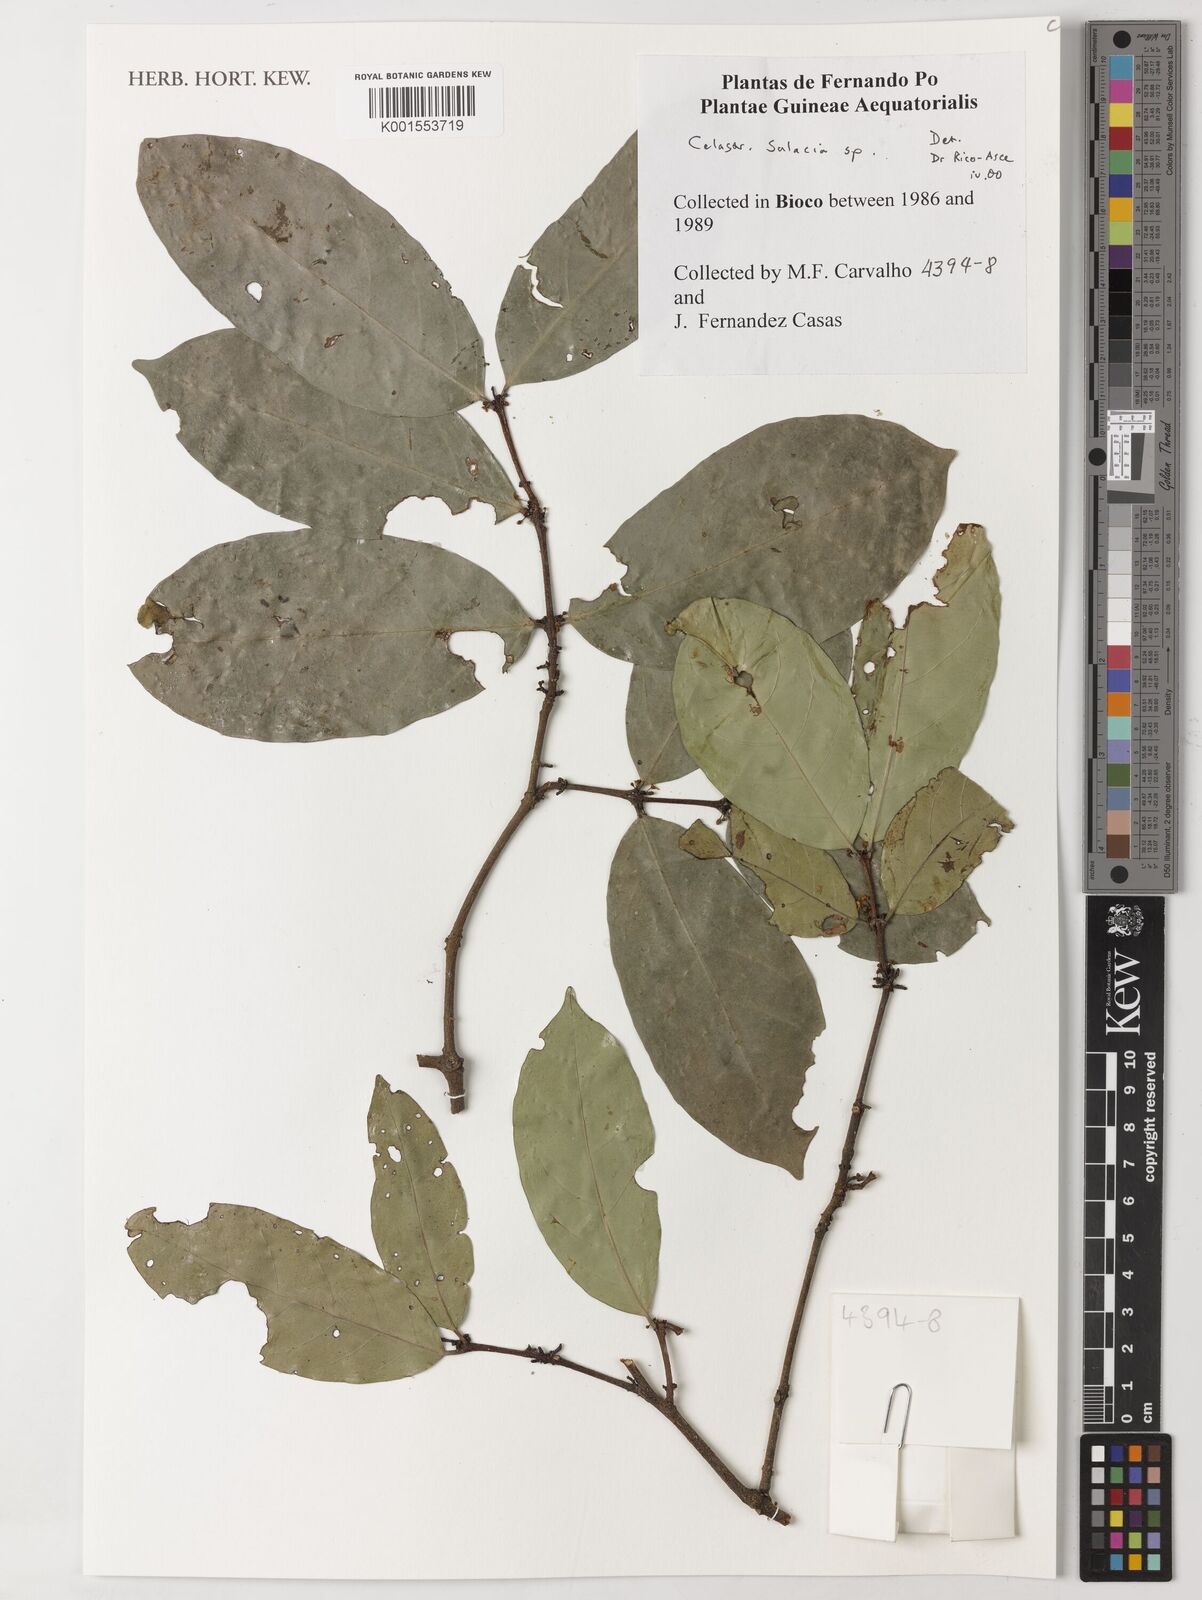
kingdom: Plantae
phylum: Tracheophyta
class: Magnoliopsida
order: Celastrales
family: Celastraceae
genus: Salacia
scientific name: Salacia
